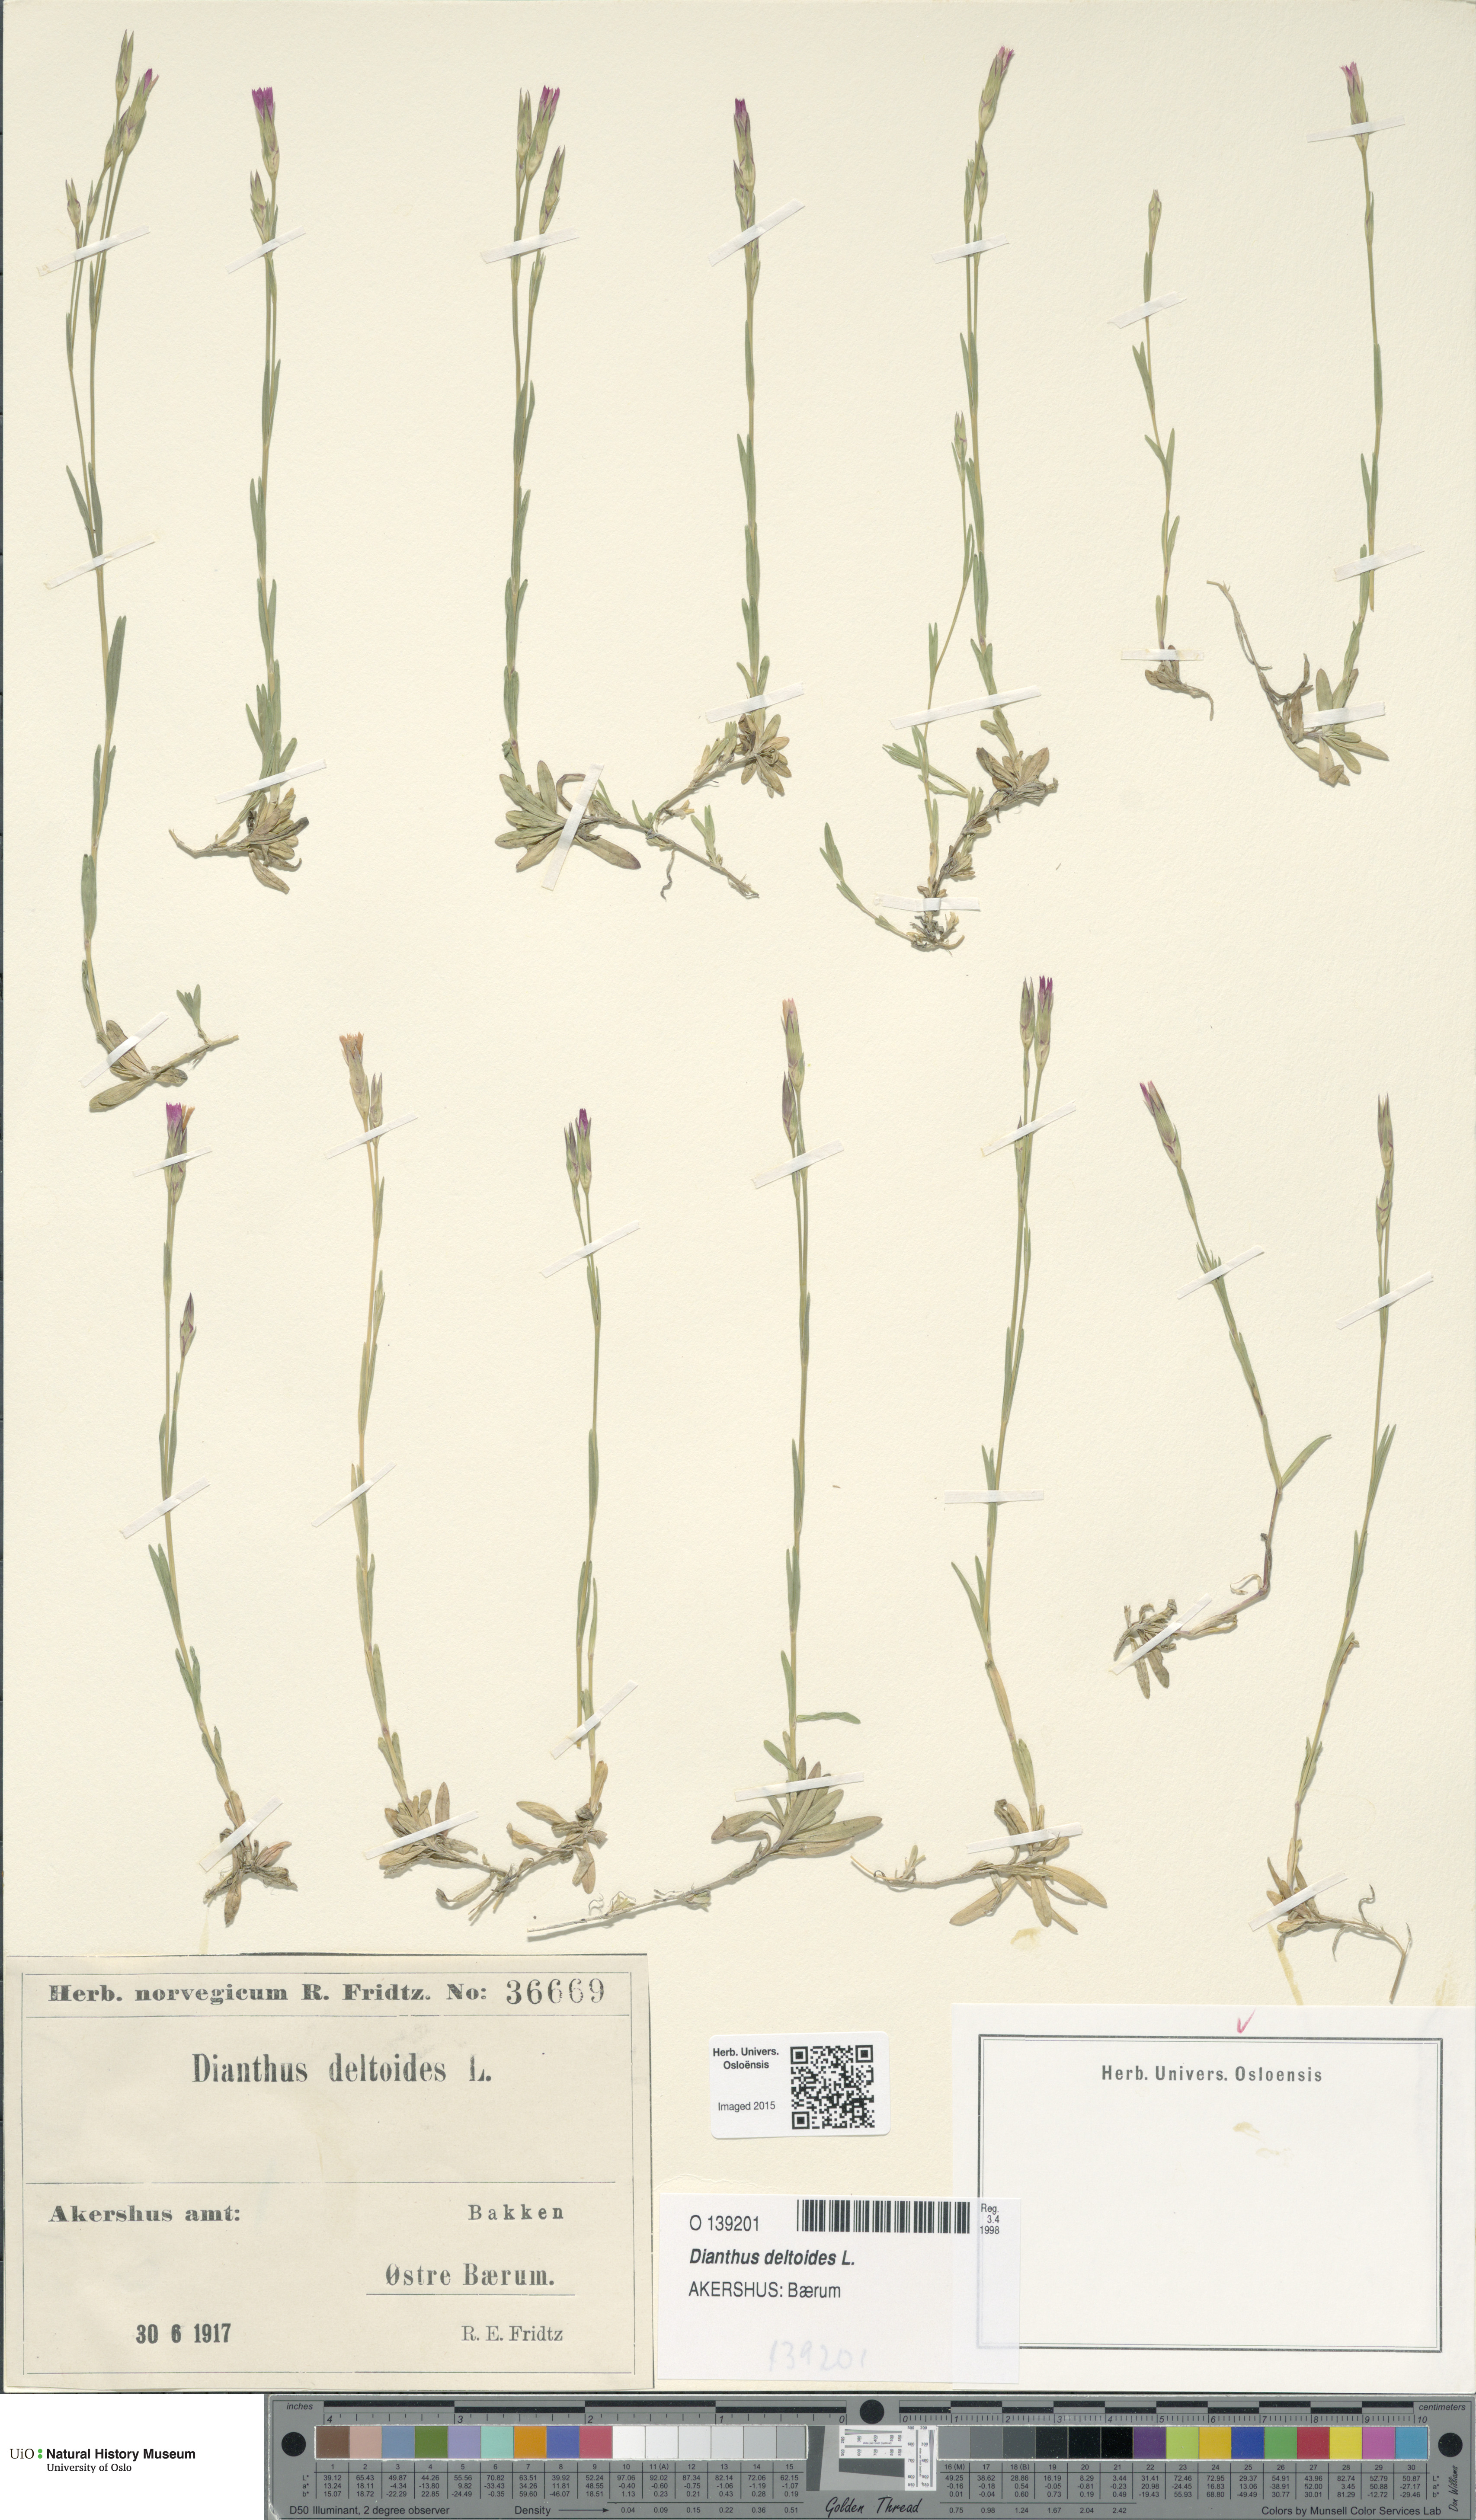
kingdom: Plantae
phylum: Tracheophyta
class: Magnoliopsida
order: Caryophyllales
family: Caryophyllaceae
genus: Dianthus
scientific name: Dianthus deltoides
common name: Maiden pink
